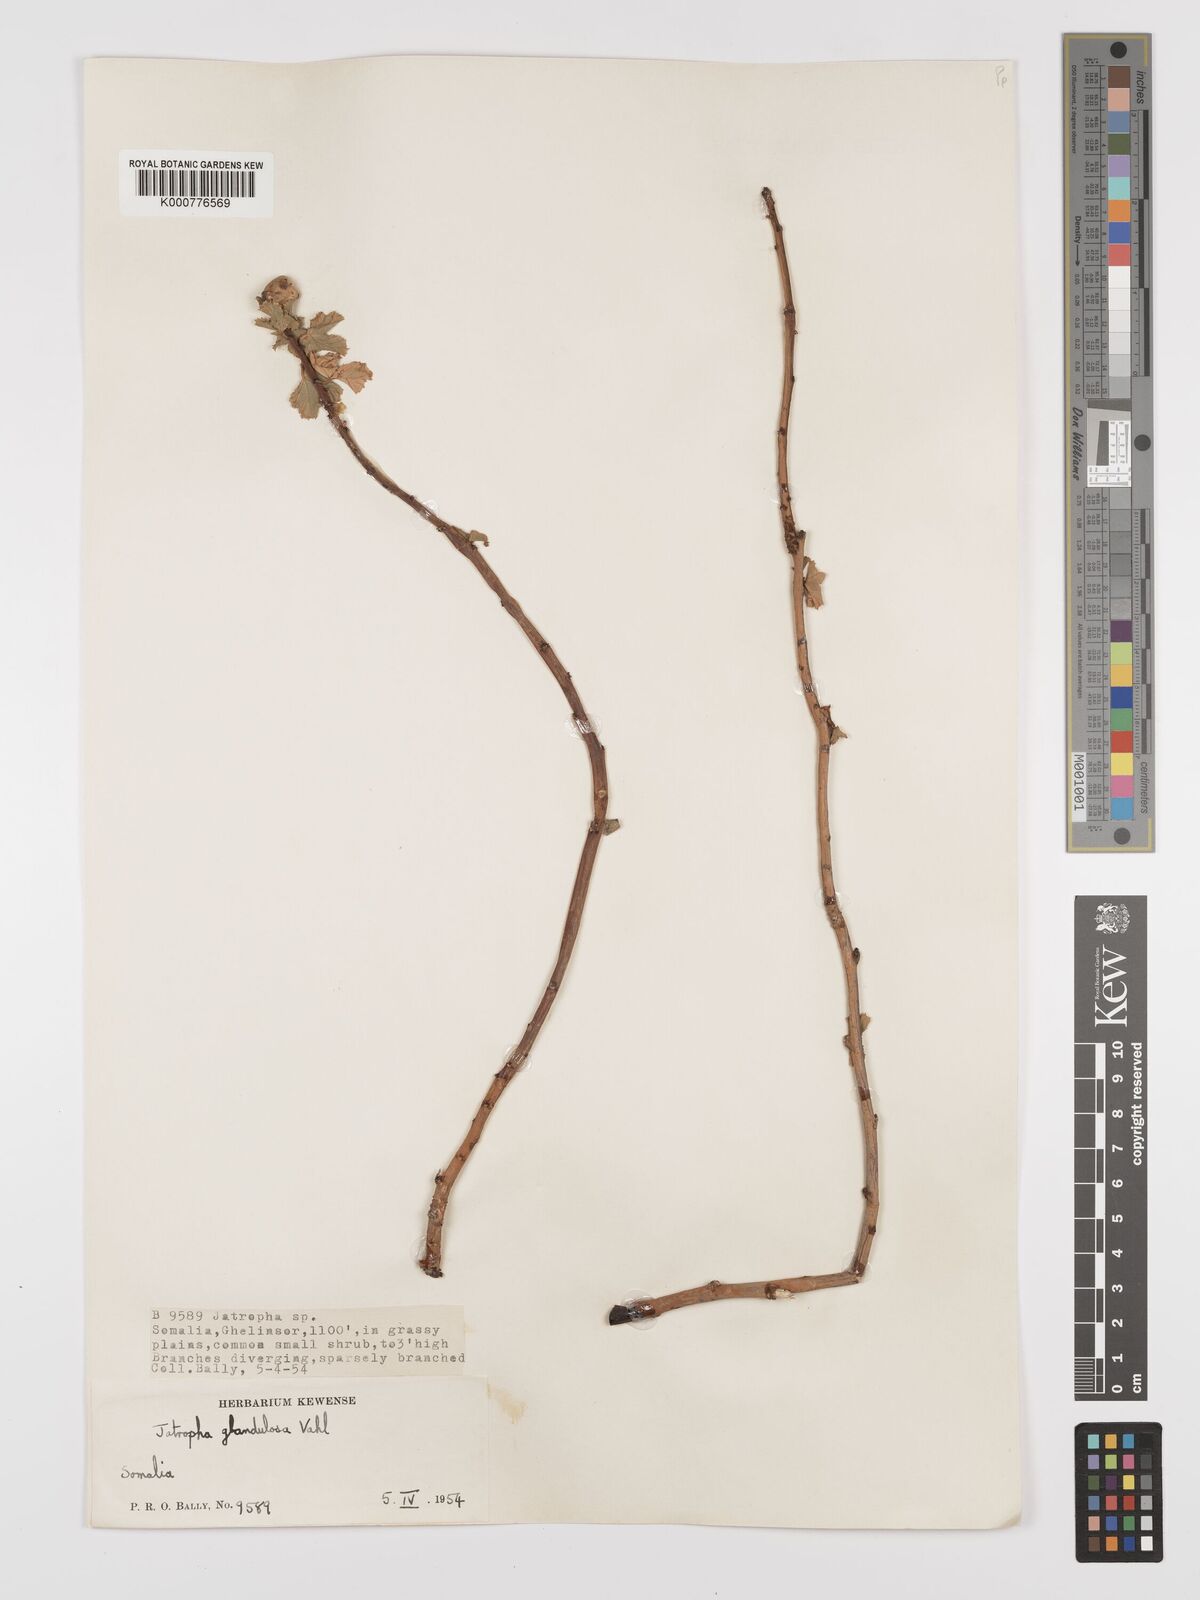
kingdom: Plantae
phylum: Tracheophyta
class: Magnoliopsida
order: Malpighiales
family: Euphorbiaceae
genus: Jatropha
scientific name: Jatropha pelargoniifolia
